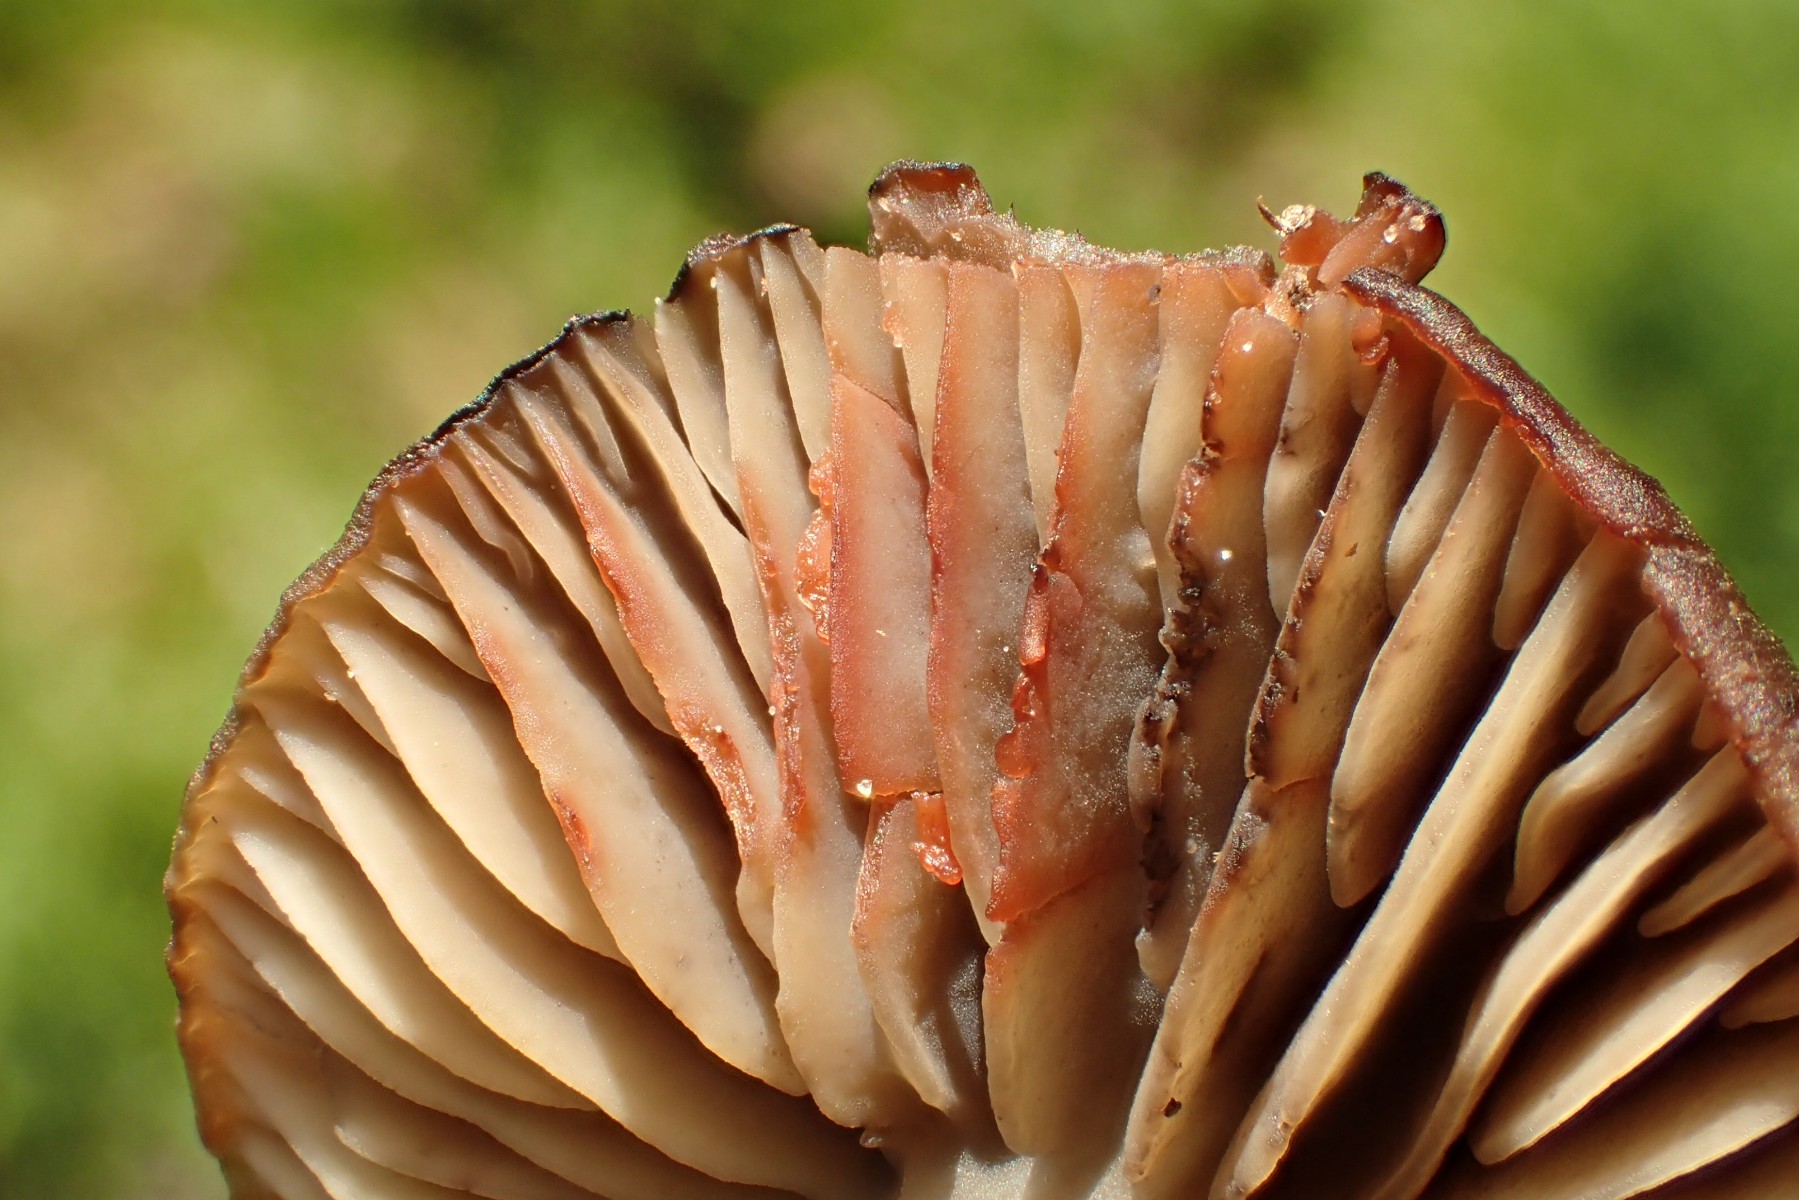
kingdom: Fungi
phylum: Basidiomycota
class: Agaricomycetes
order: Agaricales
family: Hygrophoraceae
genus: Neohygrocybe
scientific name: Neohygrocybe ovina
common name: rødmende vokshat
